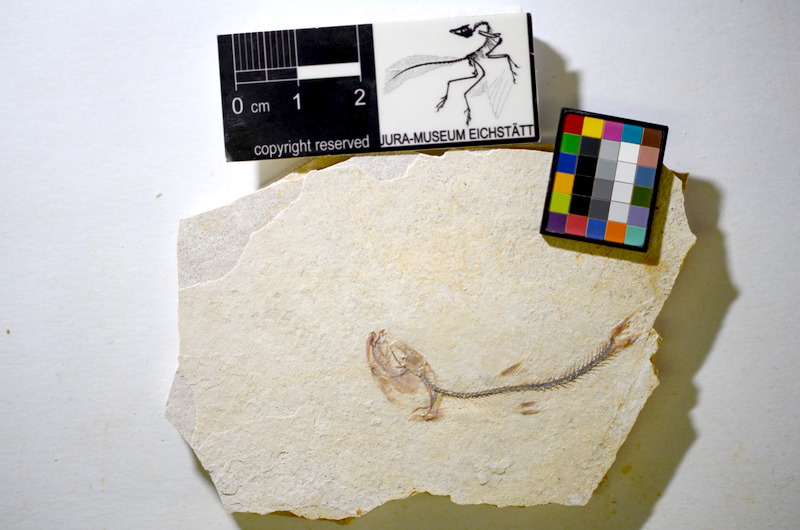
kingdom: Animalia
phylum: Chordata
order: Salmoniformes
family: Orthogonikleithridae
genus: Orthogonikleithrus
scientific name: Orthogonikleithrus hoelli
